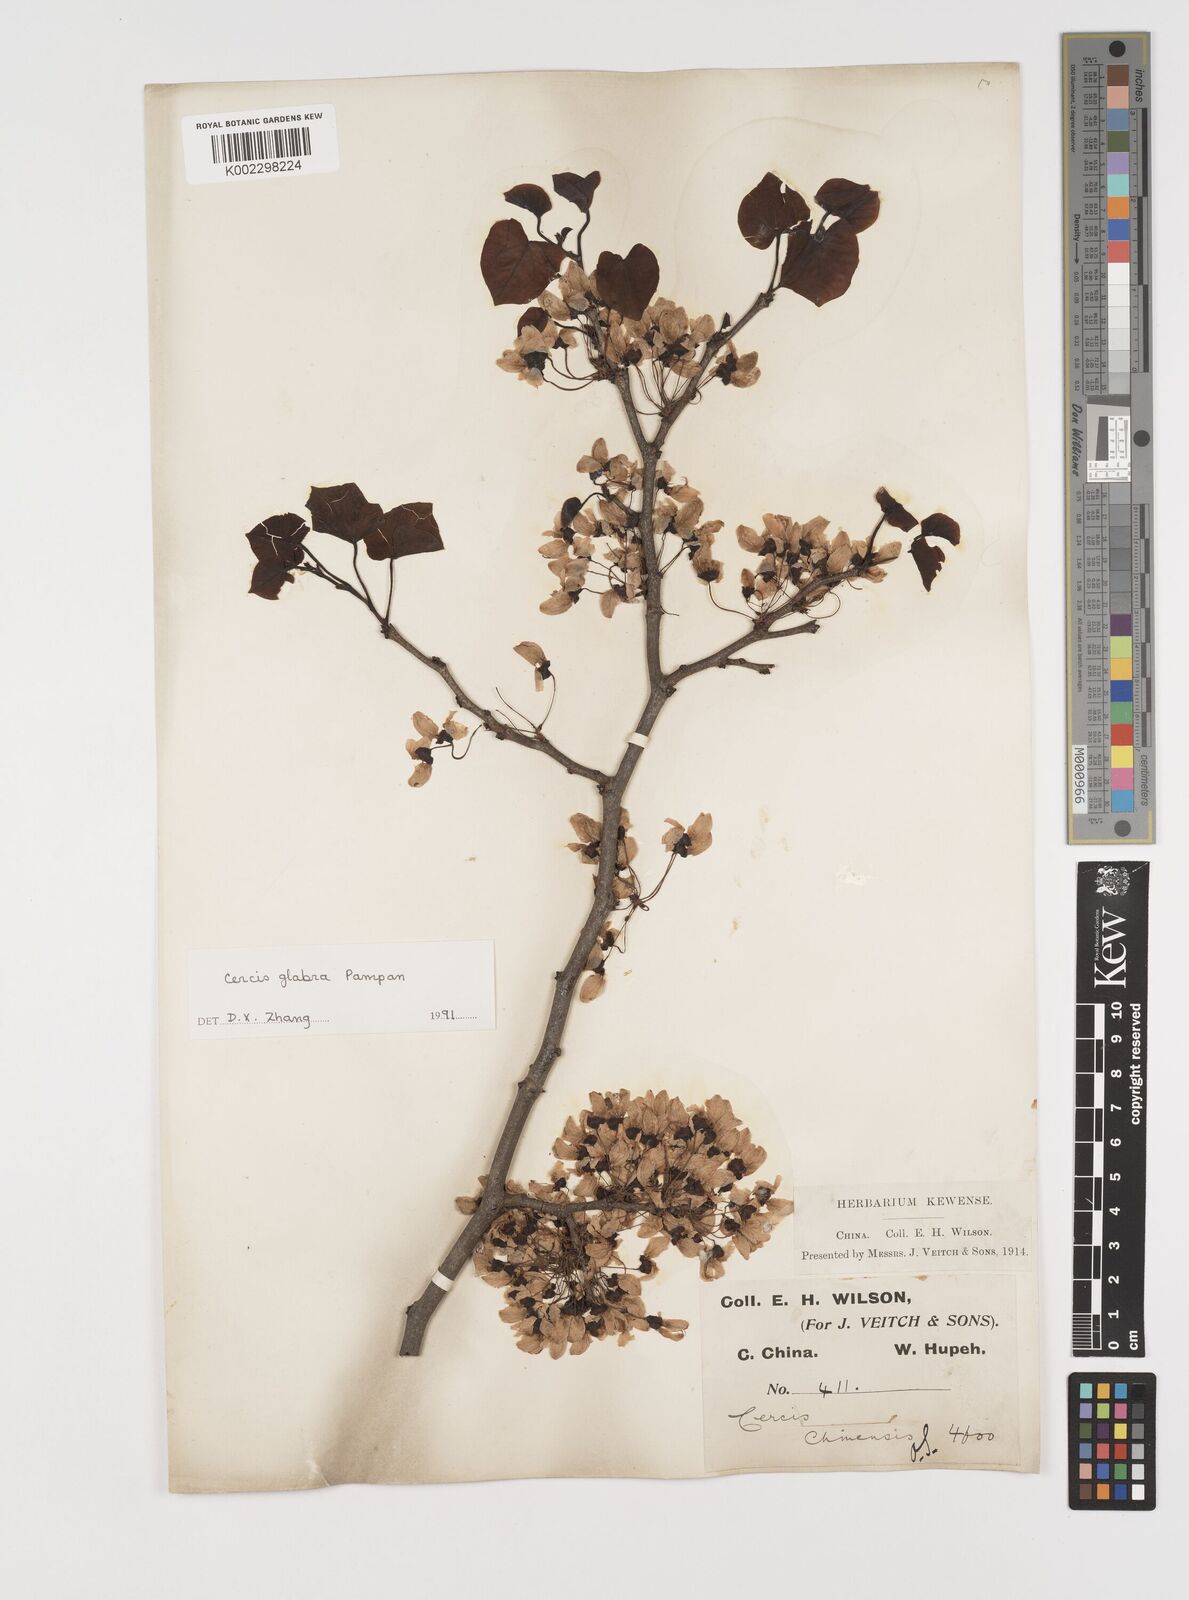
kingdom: Plantae
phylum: Tracheophyta
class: Magnoliopsida
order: Fabales
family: Fabaceae
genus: Cercis
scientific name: Cercis glabra
